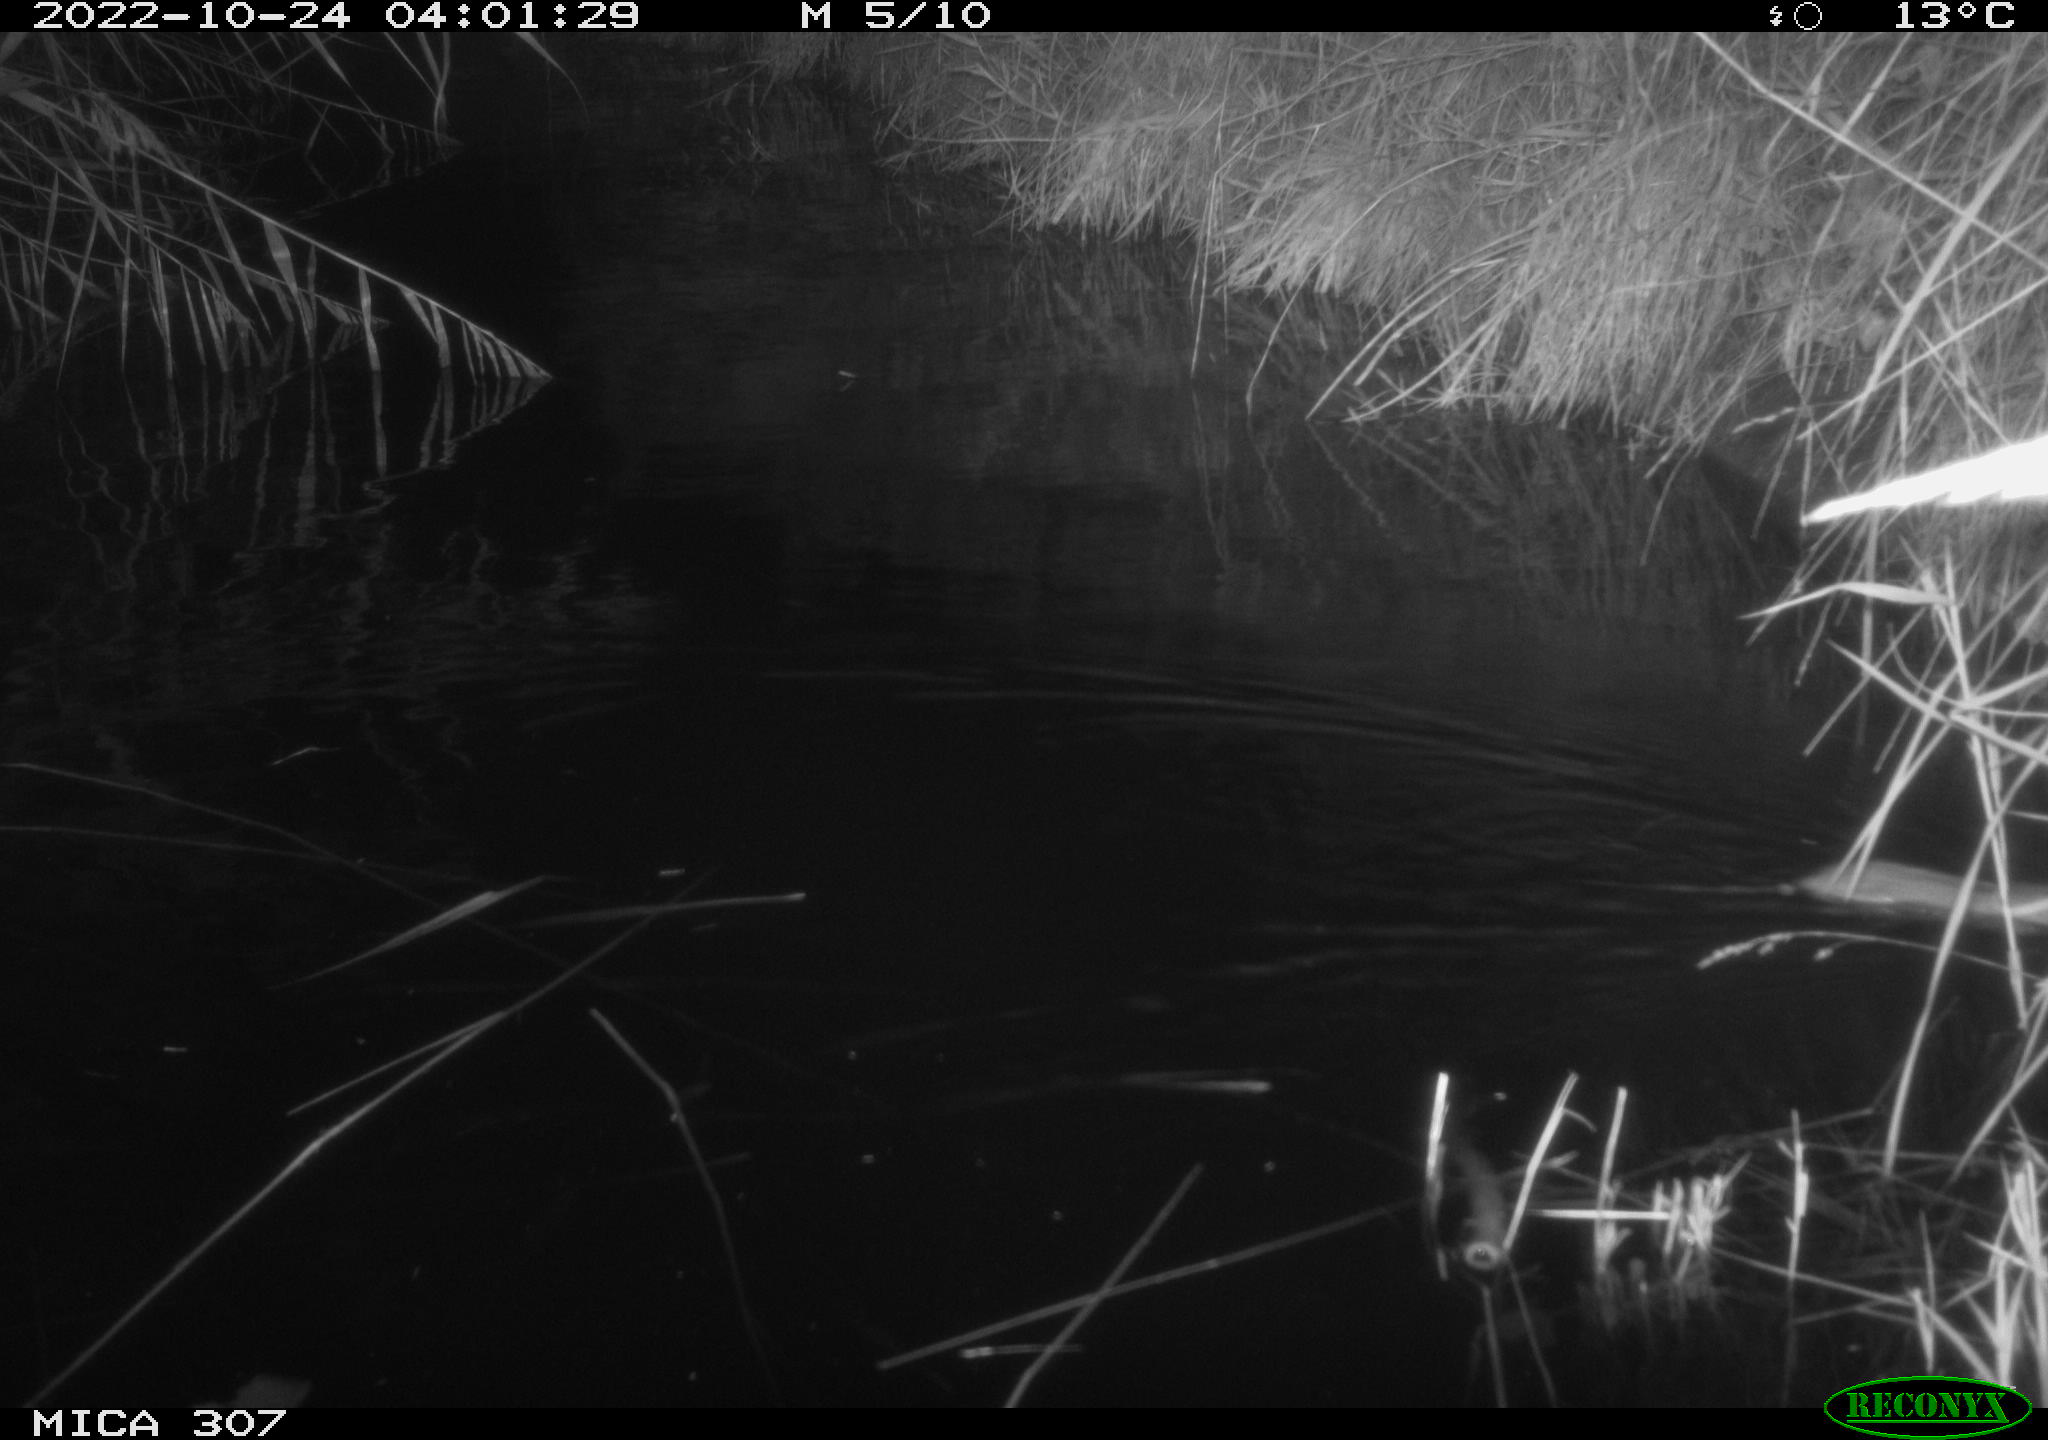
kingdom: Animalia
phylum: Chordata
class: Mammalia
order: Rodentia
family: Muridae
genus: Rattus
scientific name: Rattus norvegicus
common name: Brown rat
